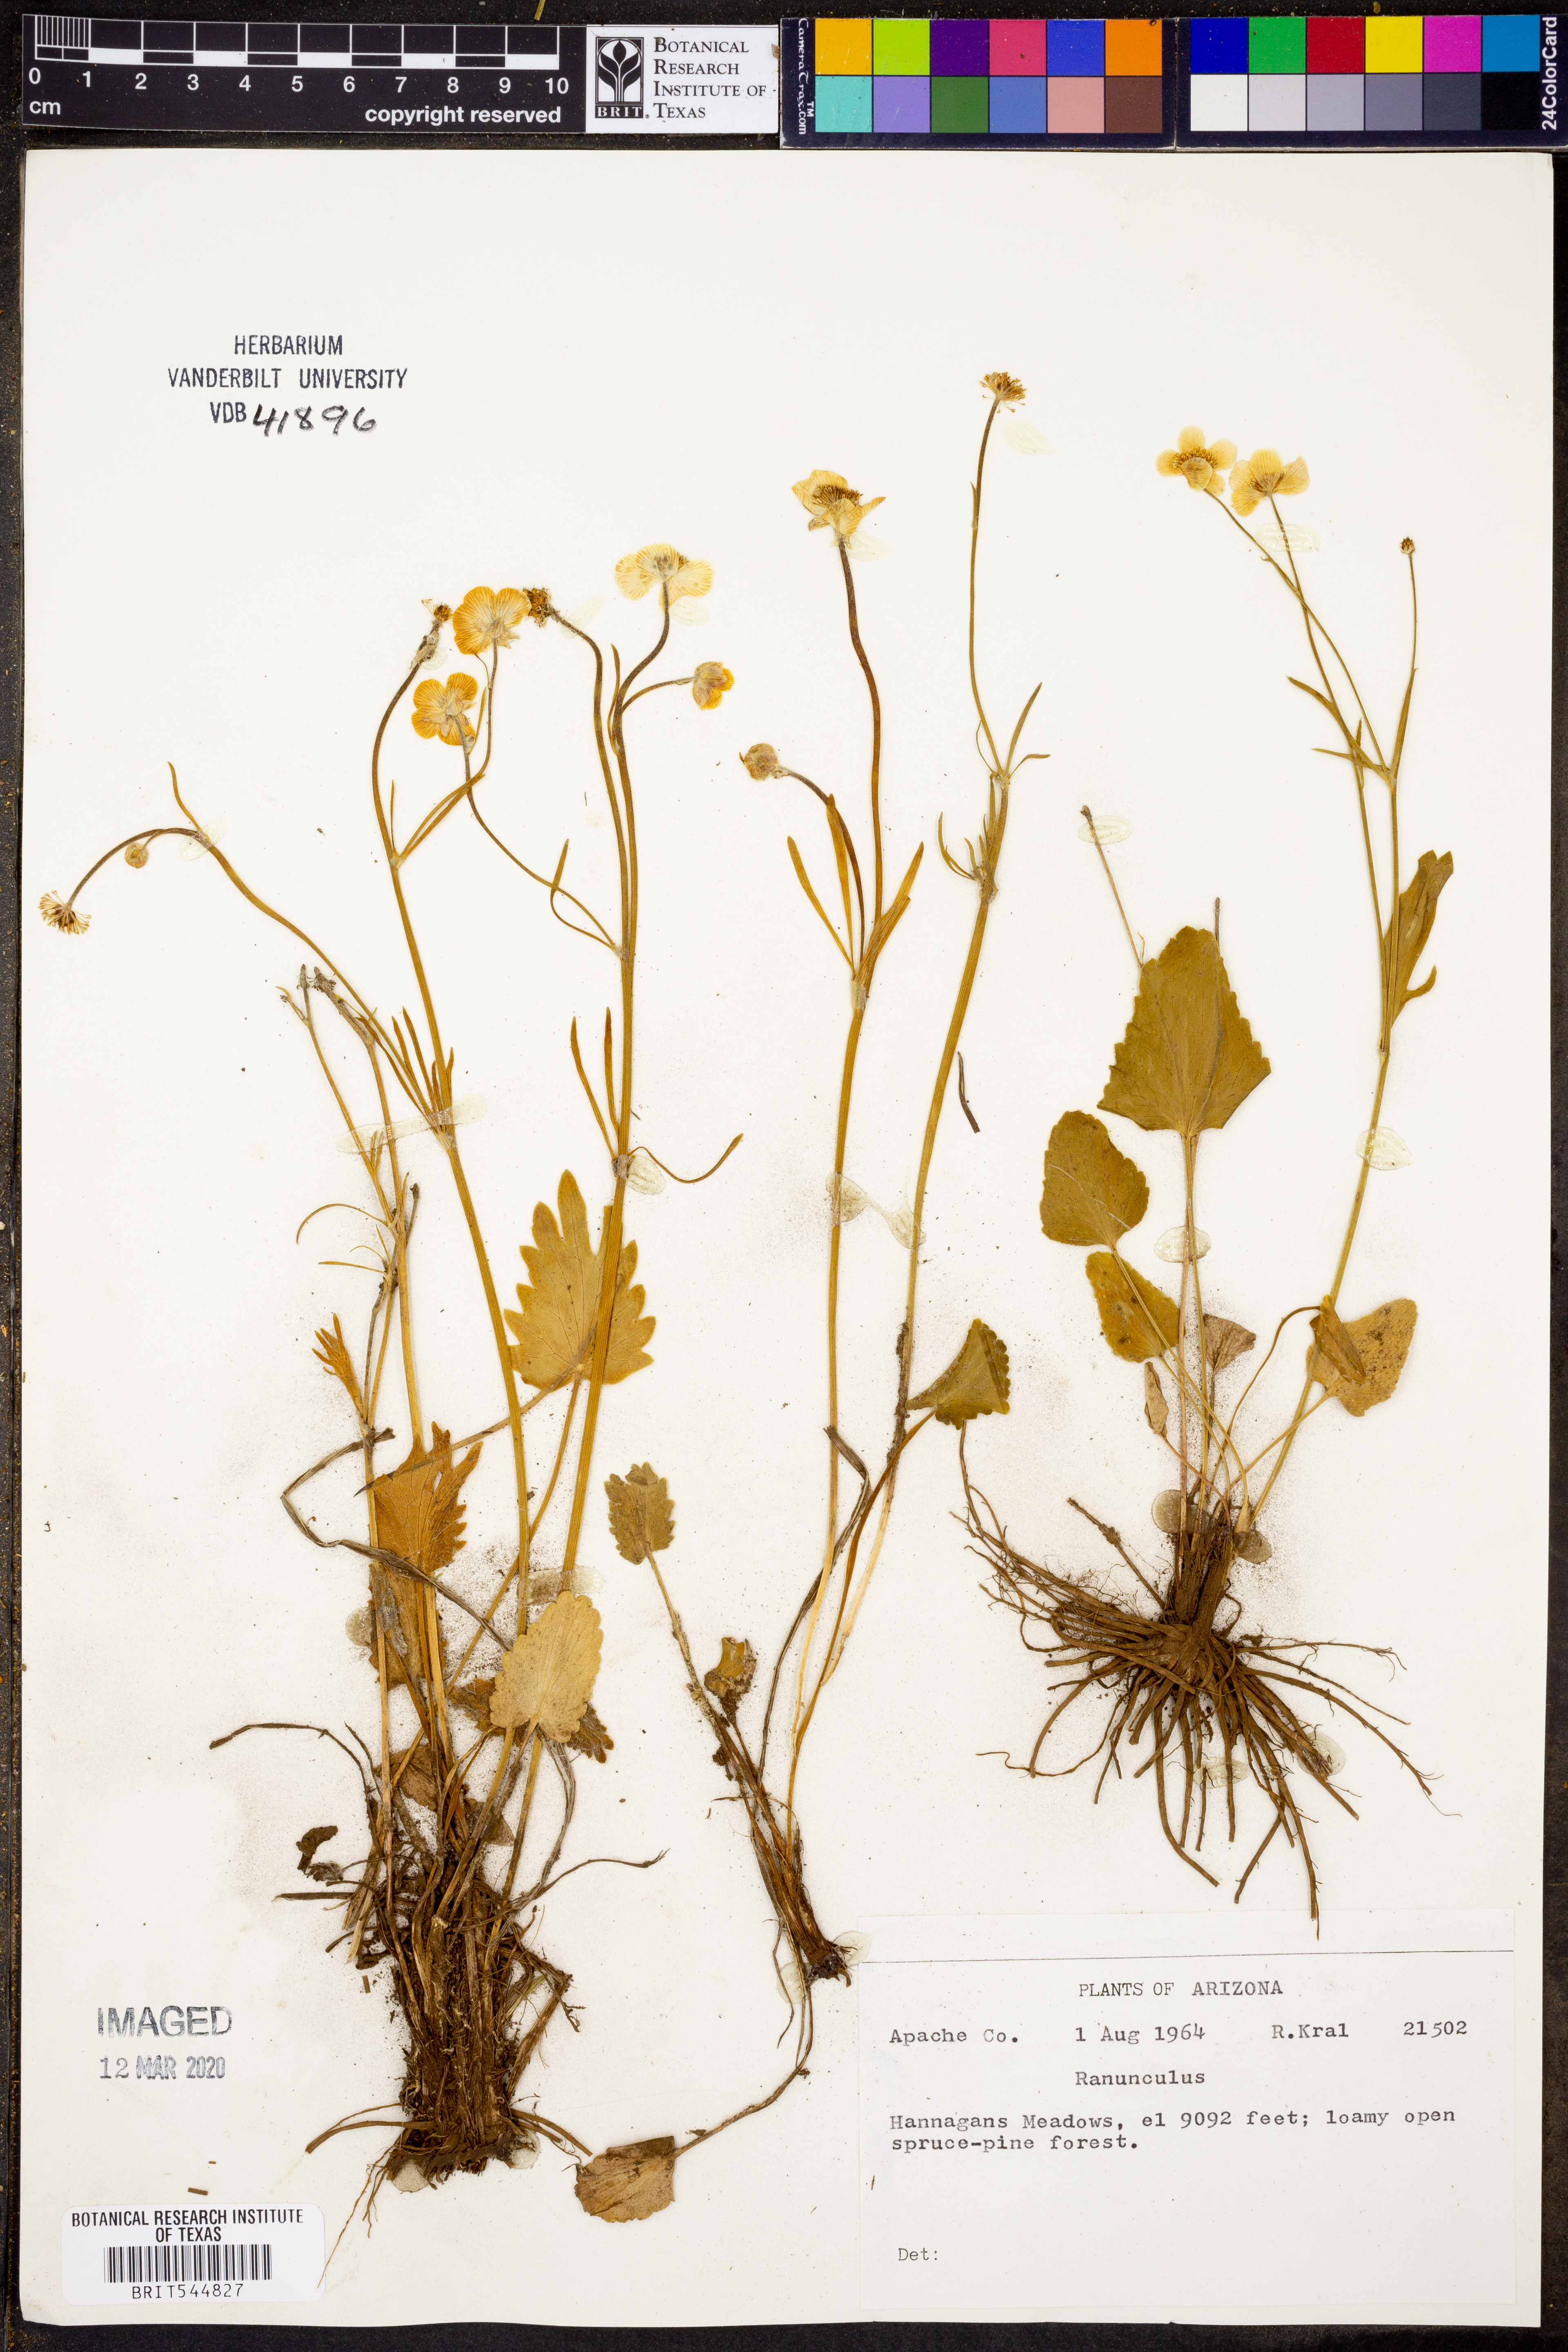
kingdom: Plantae
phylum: Tracheophyta
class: Magnoliopsida
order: Ranunculales
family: Ranunculaceae
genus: Ranunculus
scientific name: Ranunculus
